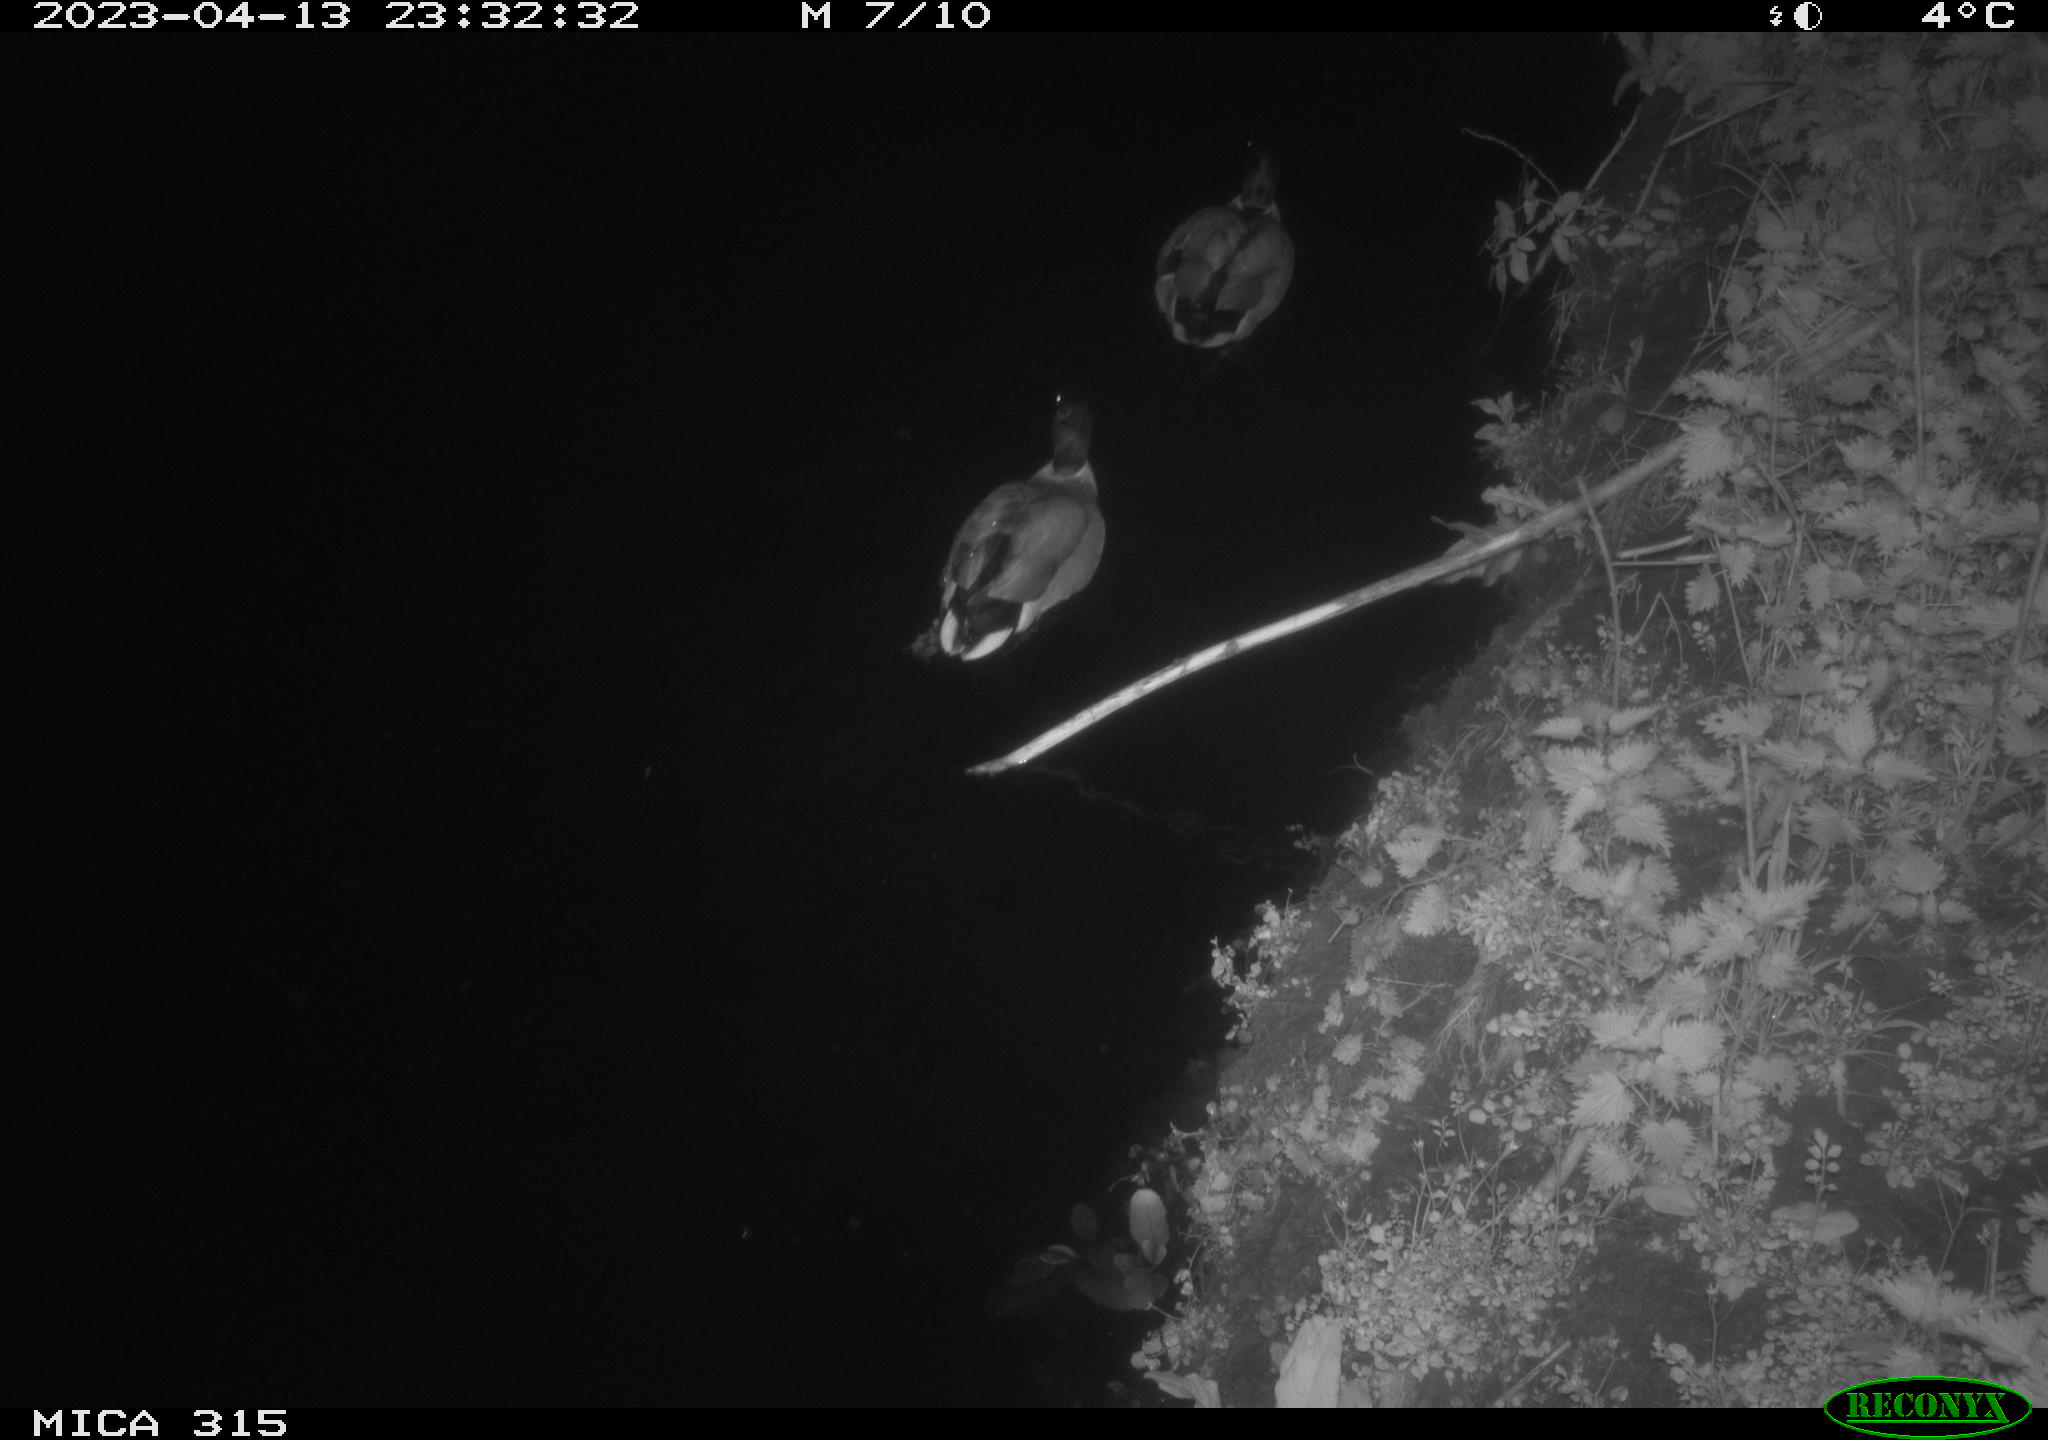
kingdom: Animalia
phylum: Chordata
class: Aves
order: Anseriformes
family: Anatidae
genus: Anas
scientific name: Anas
